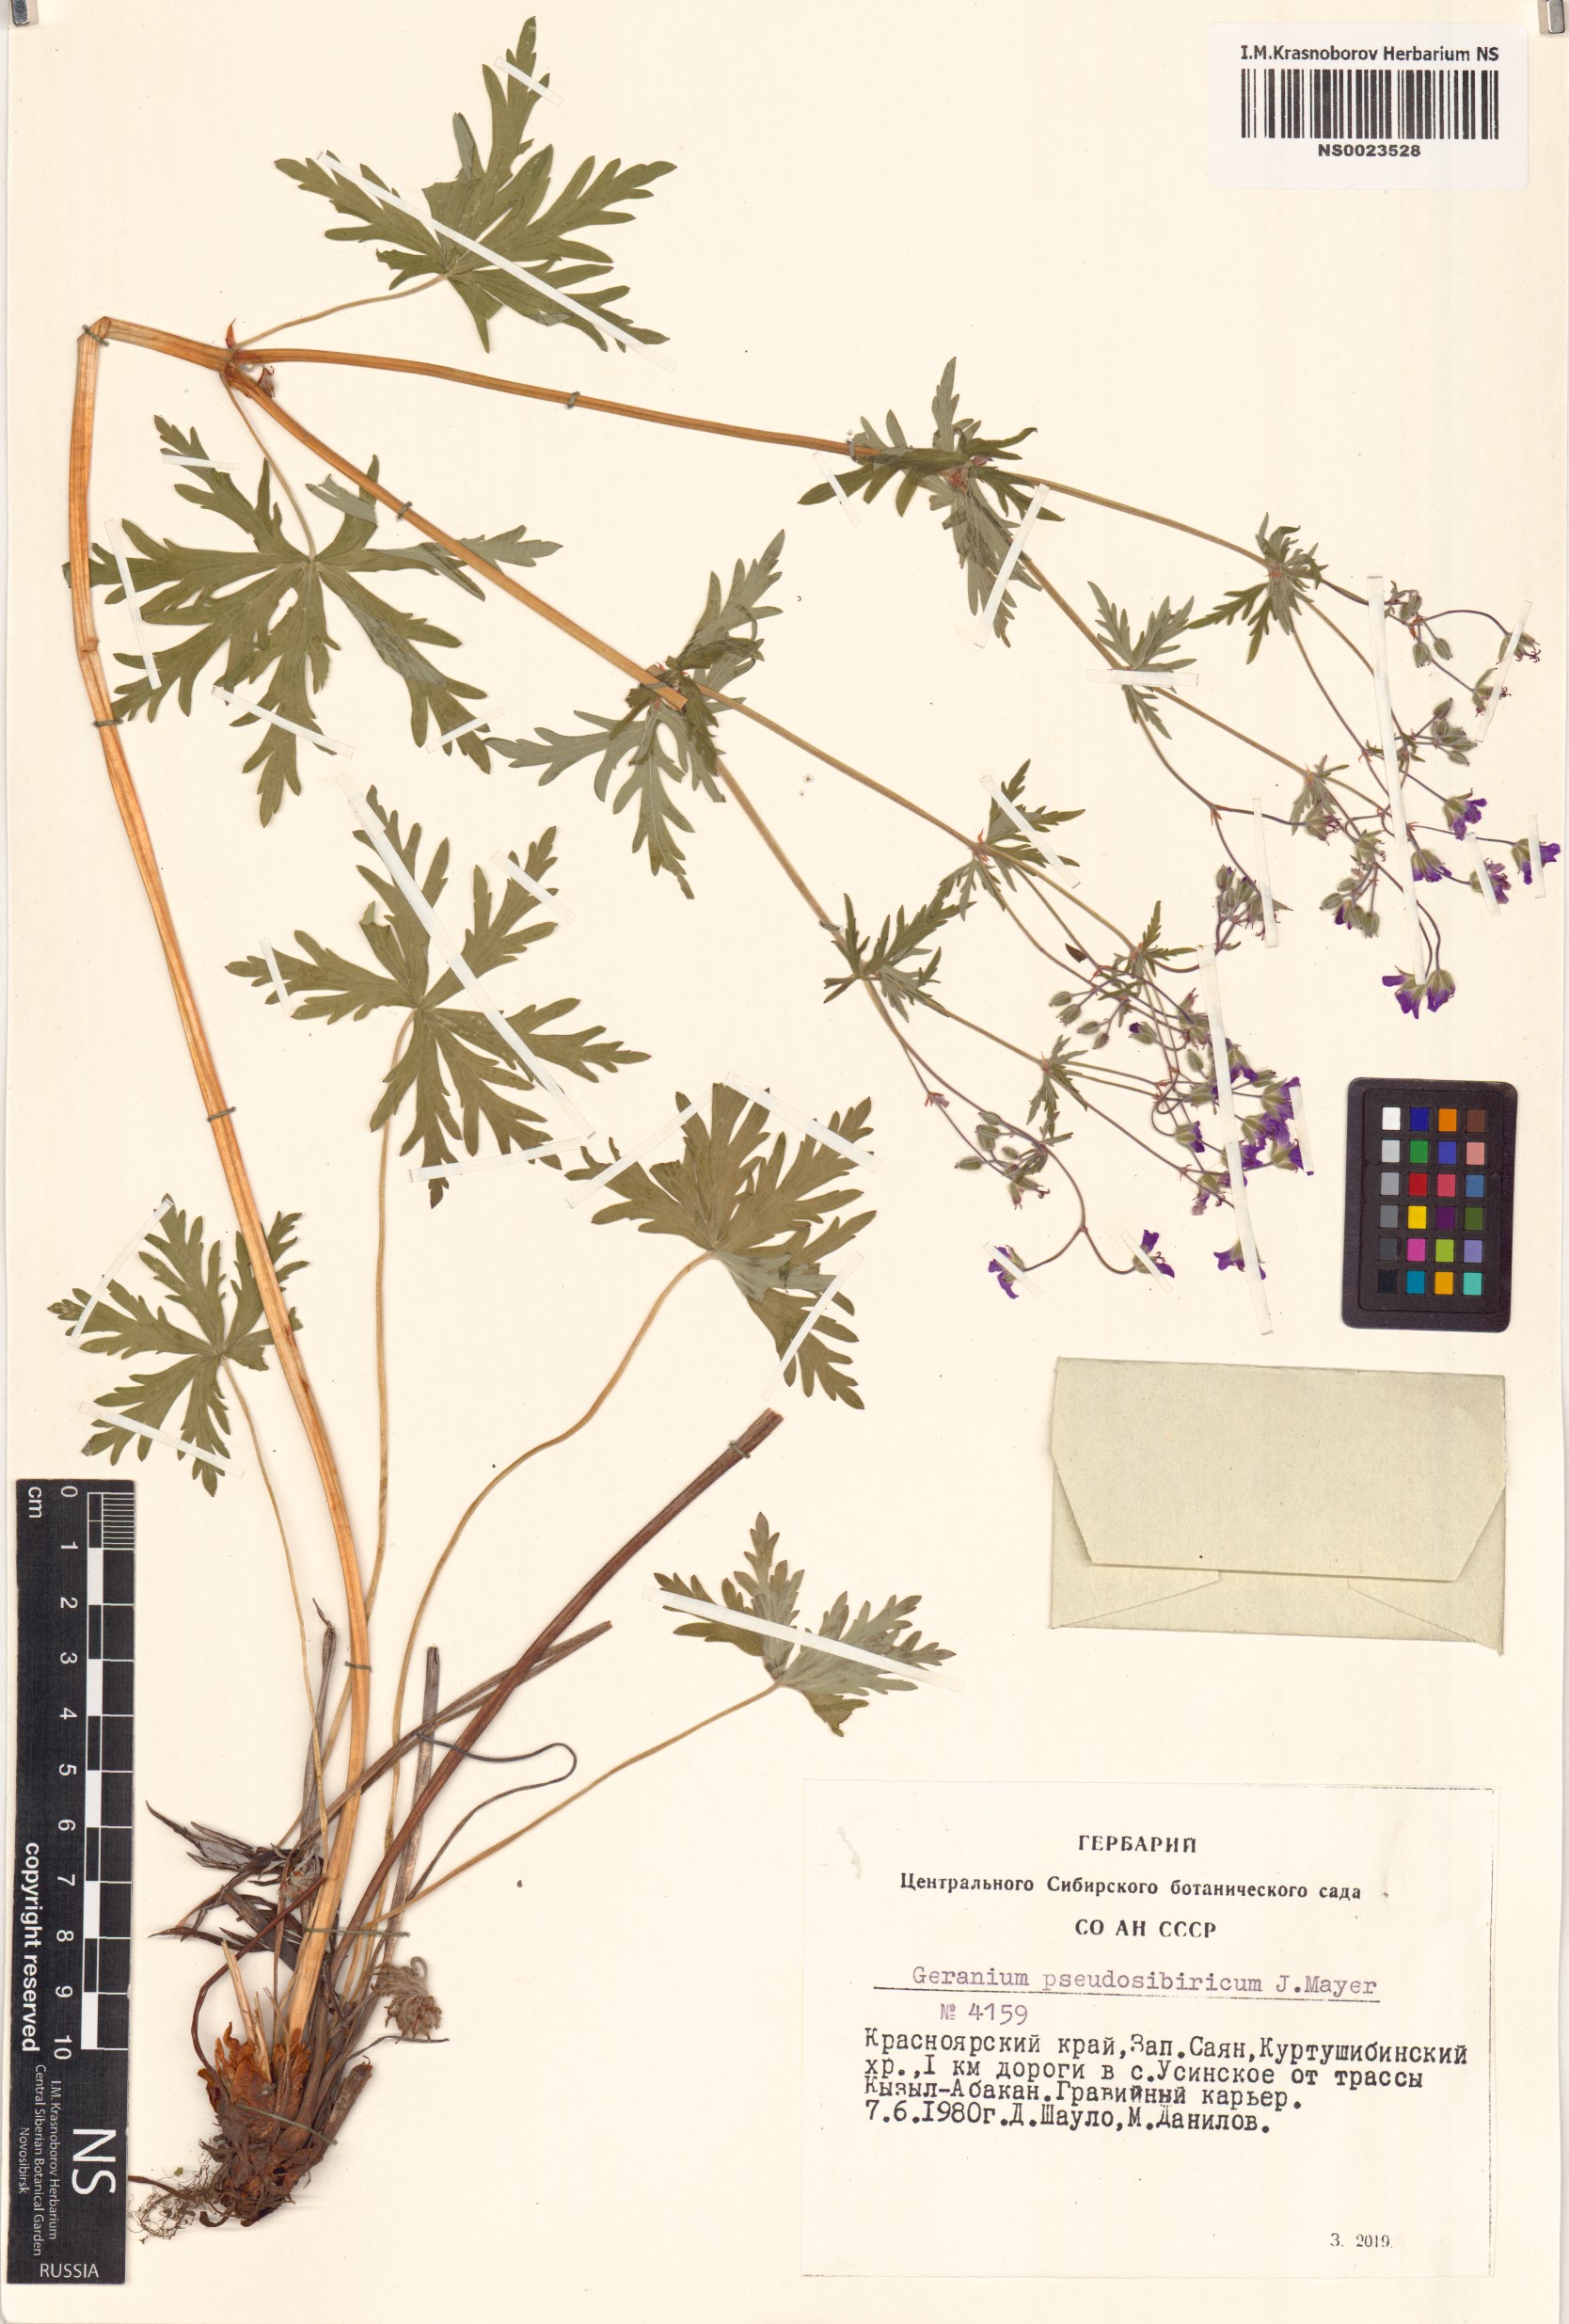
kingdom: Plantae
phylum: Tracheophyta
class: Magnoliopsida
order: Geraniales
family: Geraniaceae
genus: Geranium
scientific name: Geranium pseudosibiricum
